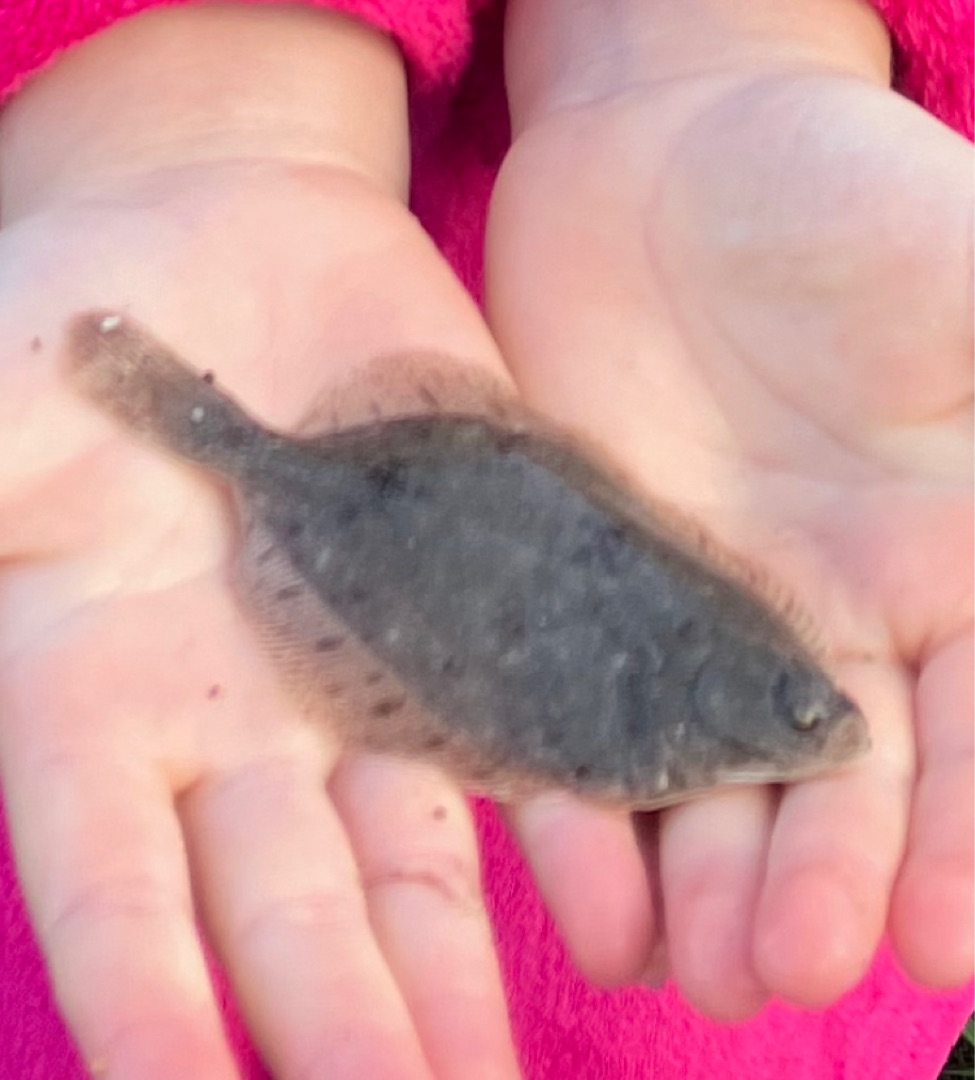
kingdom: Animalia
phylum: Chordata
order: Pleuronectiformes
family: Pleuronectidae
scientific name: Pleuronectidae
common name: Rødspættefamilien
